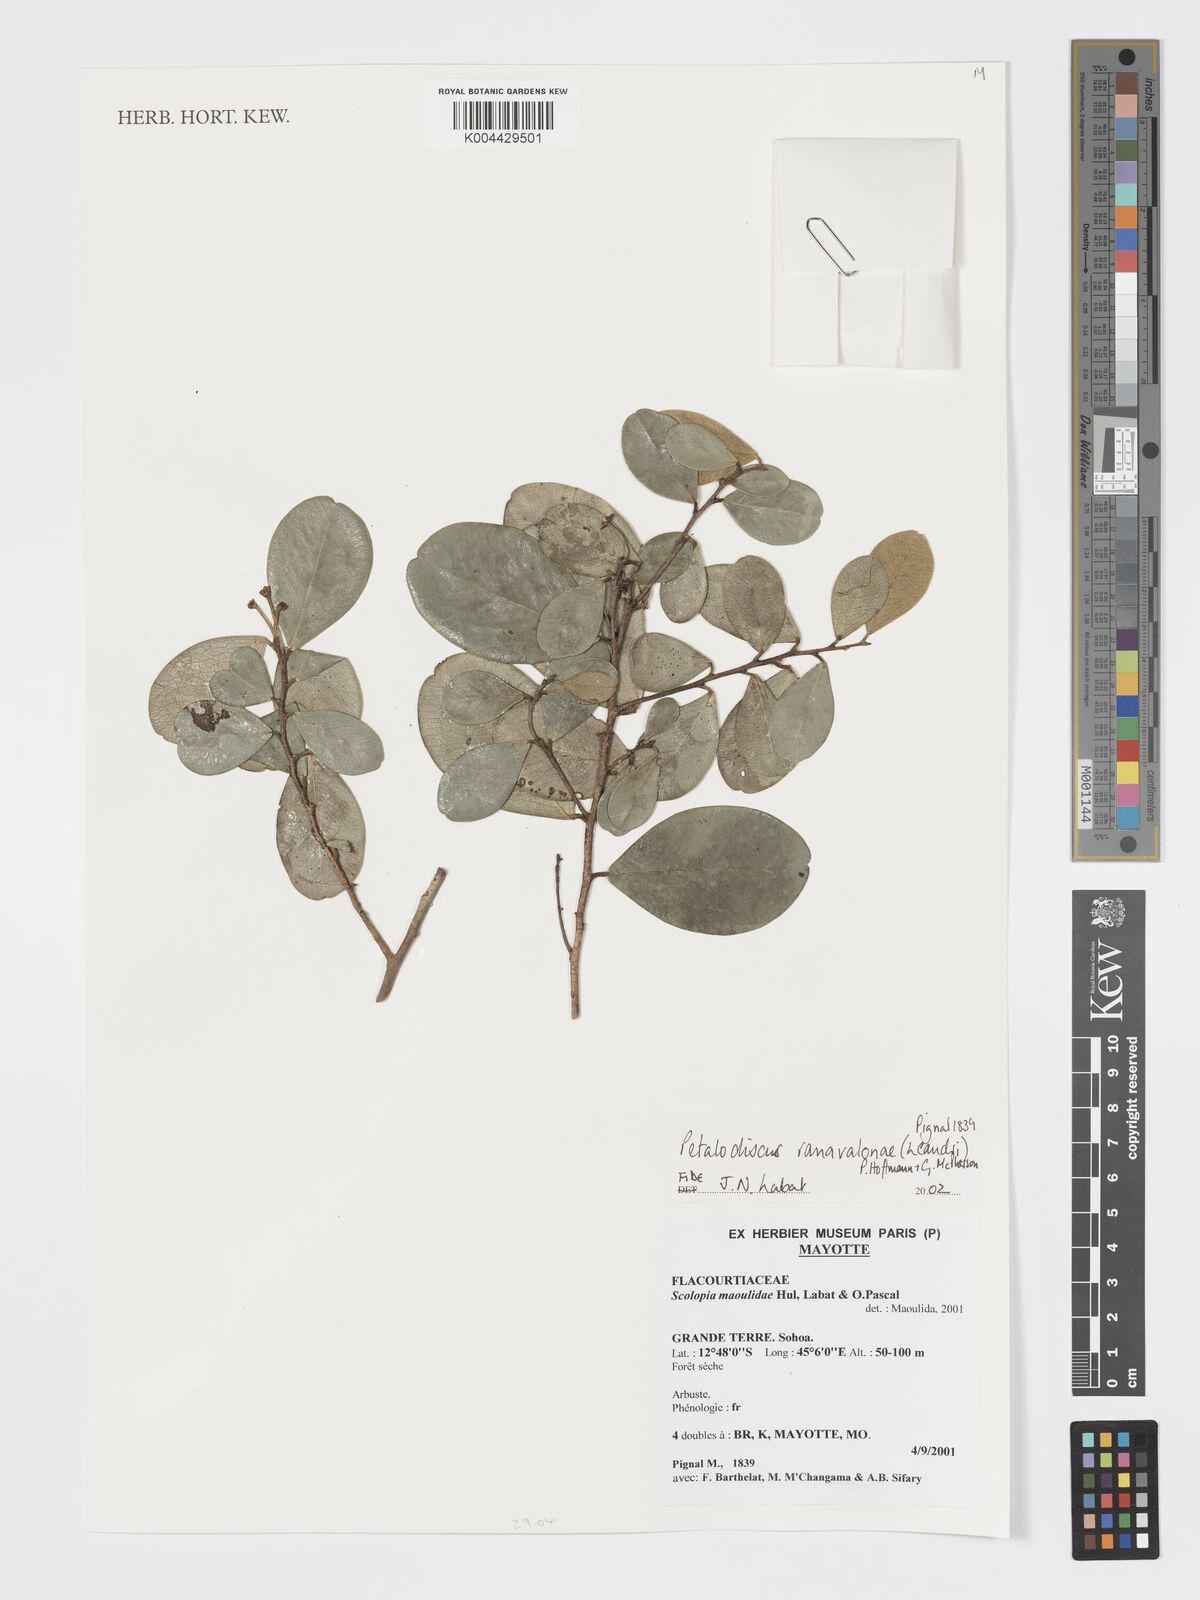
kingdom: Plantae
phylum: Tracheophyta
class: Magnoliopsida
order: Malpighiales
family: Phyllanthaceae
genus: Wielandia
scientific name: Wielandia ranavalonae
